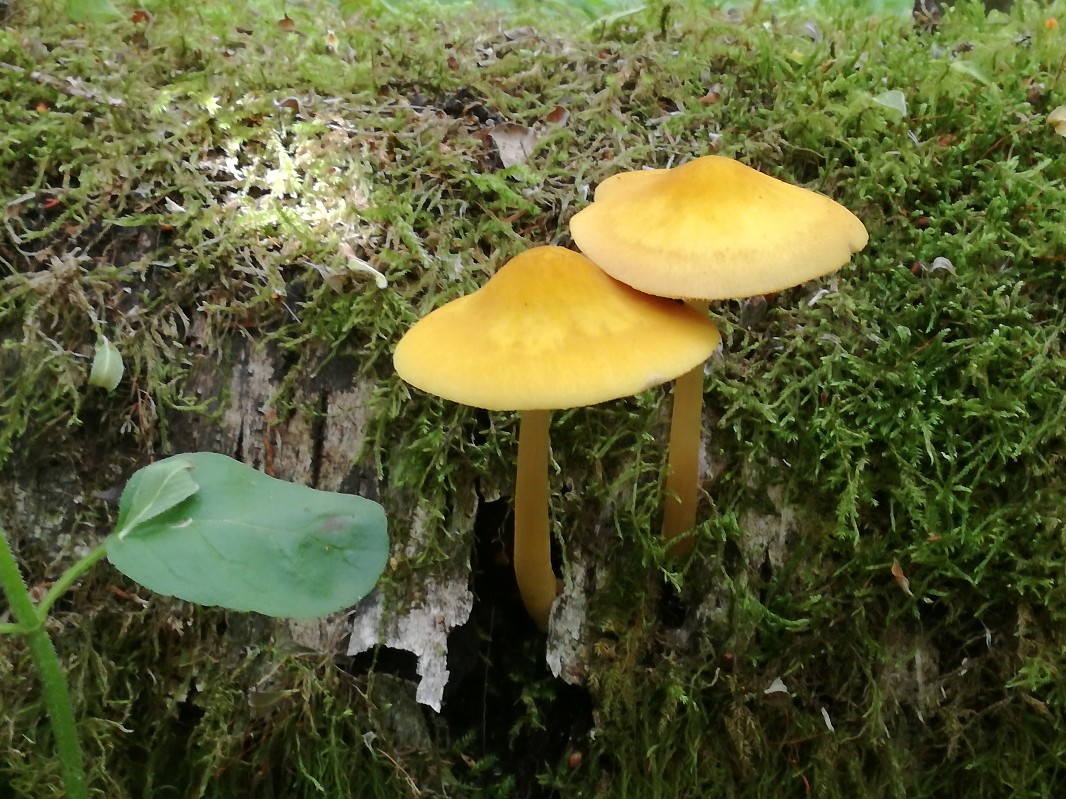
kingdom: Fungi
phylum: Basidiomycota
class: Agaricomycetes
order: Agaricales
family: Pluteaceae
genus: Pluteus
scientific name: Pluteus leoninus
